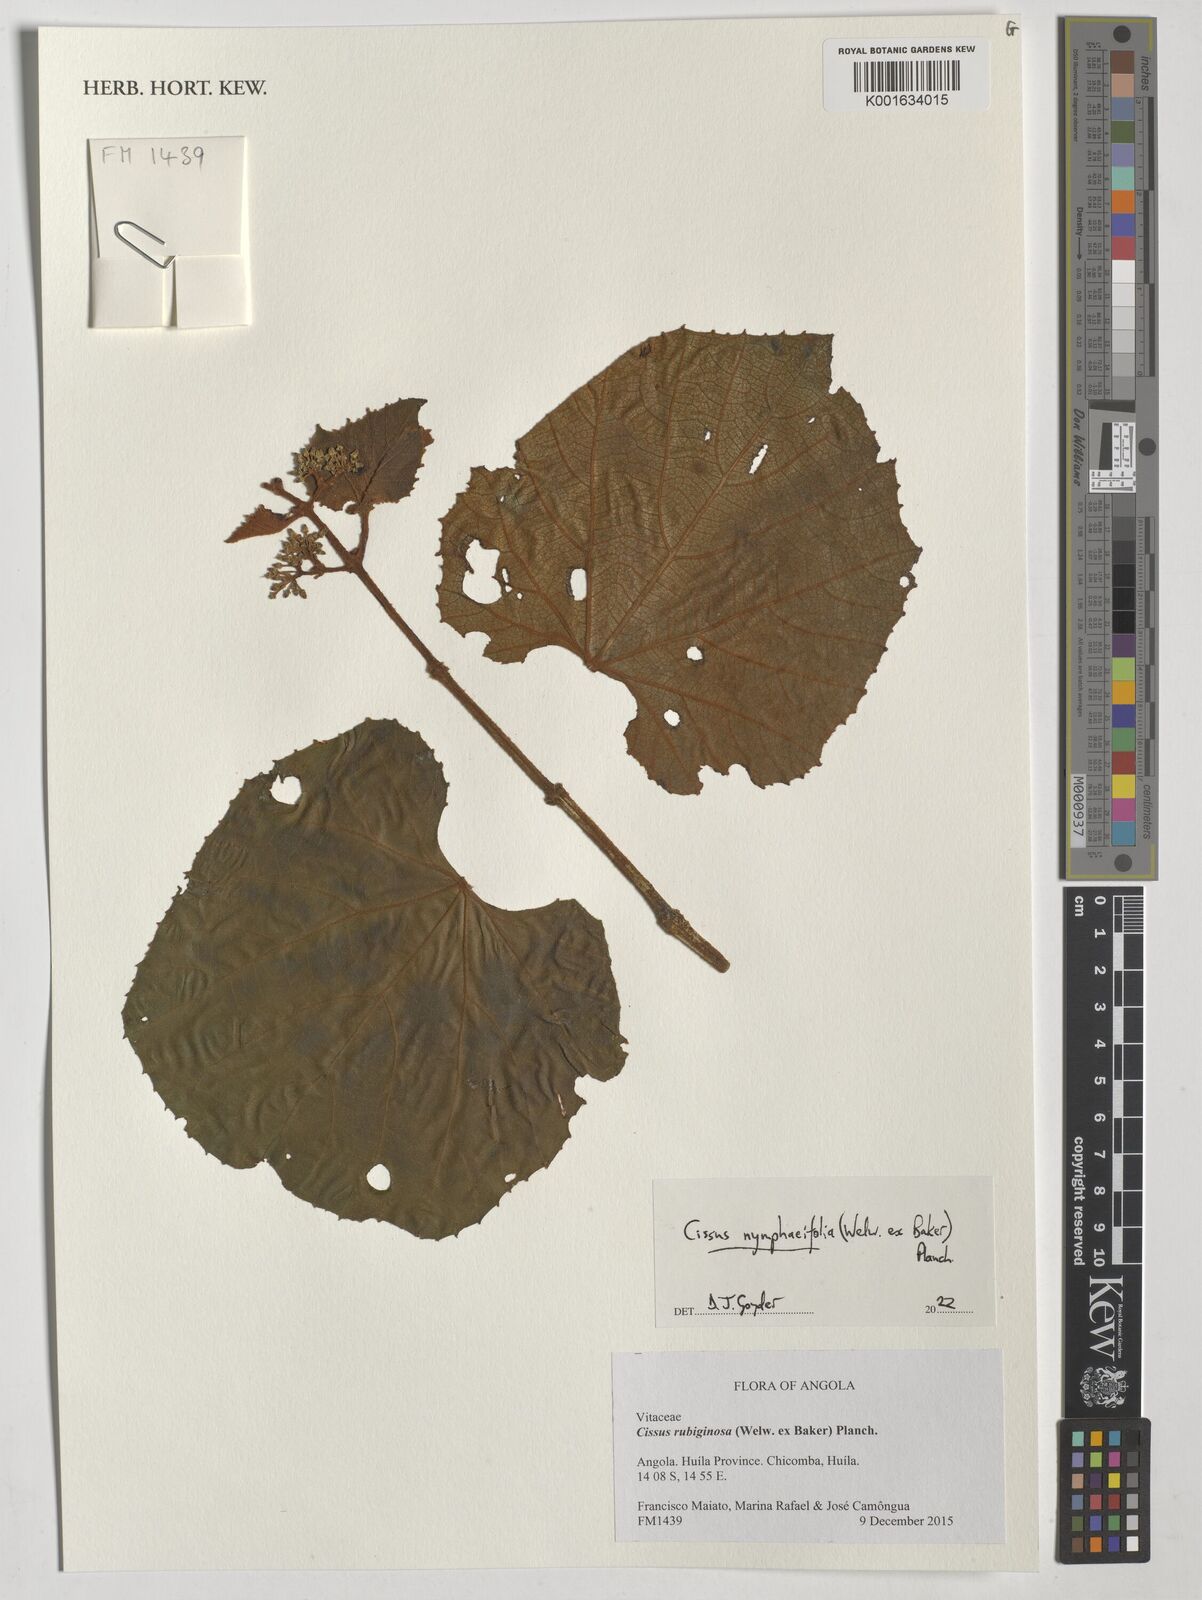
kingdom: Plantae
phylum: Tracheophyta
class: Magnoliopsida
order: Vitales
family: Vitaceae
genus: Cissus
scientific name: Cissus nymphaeifolia
